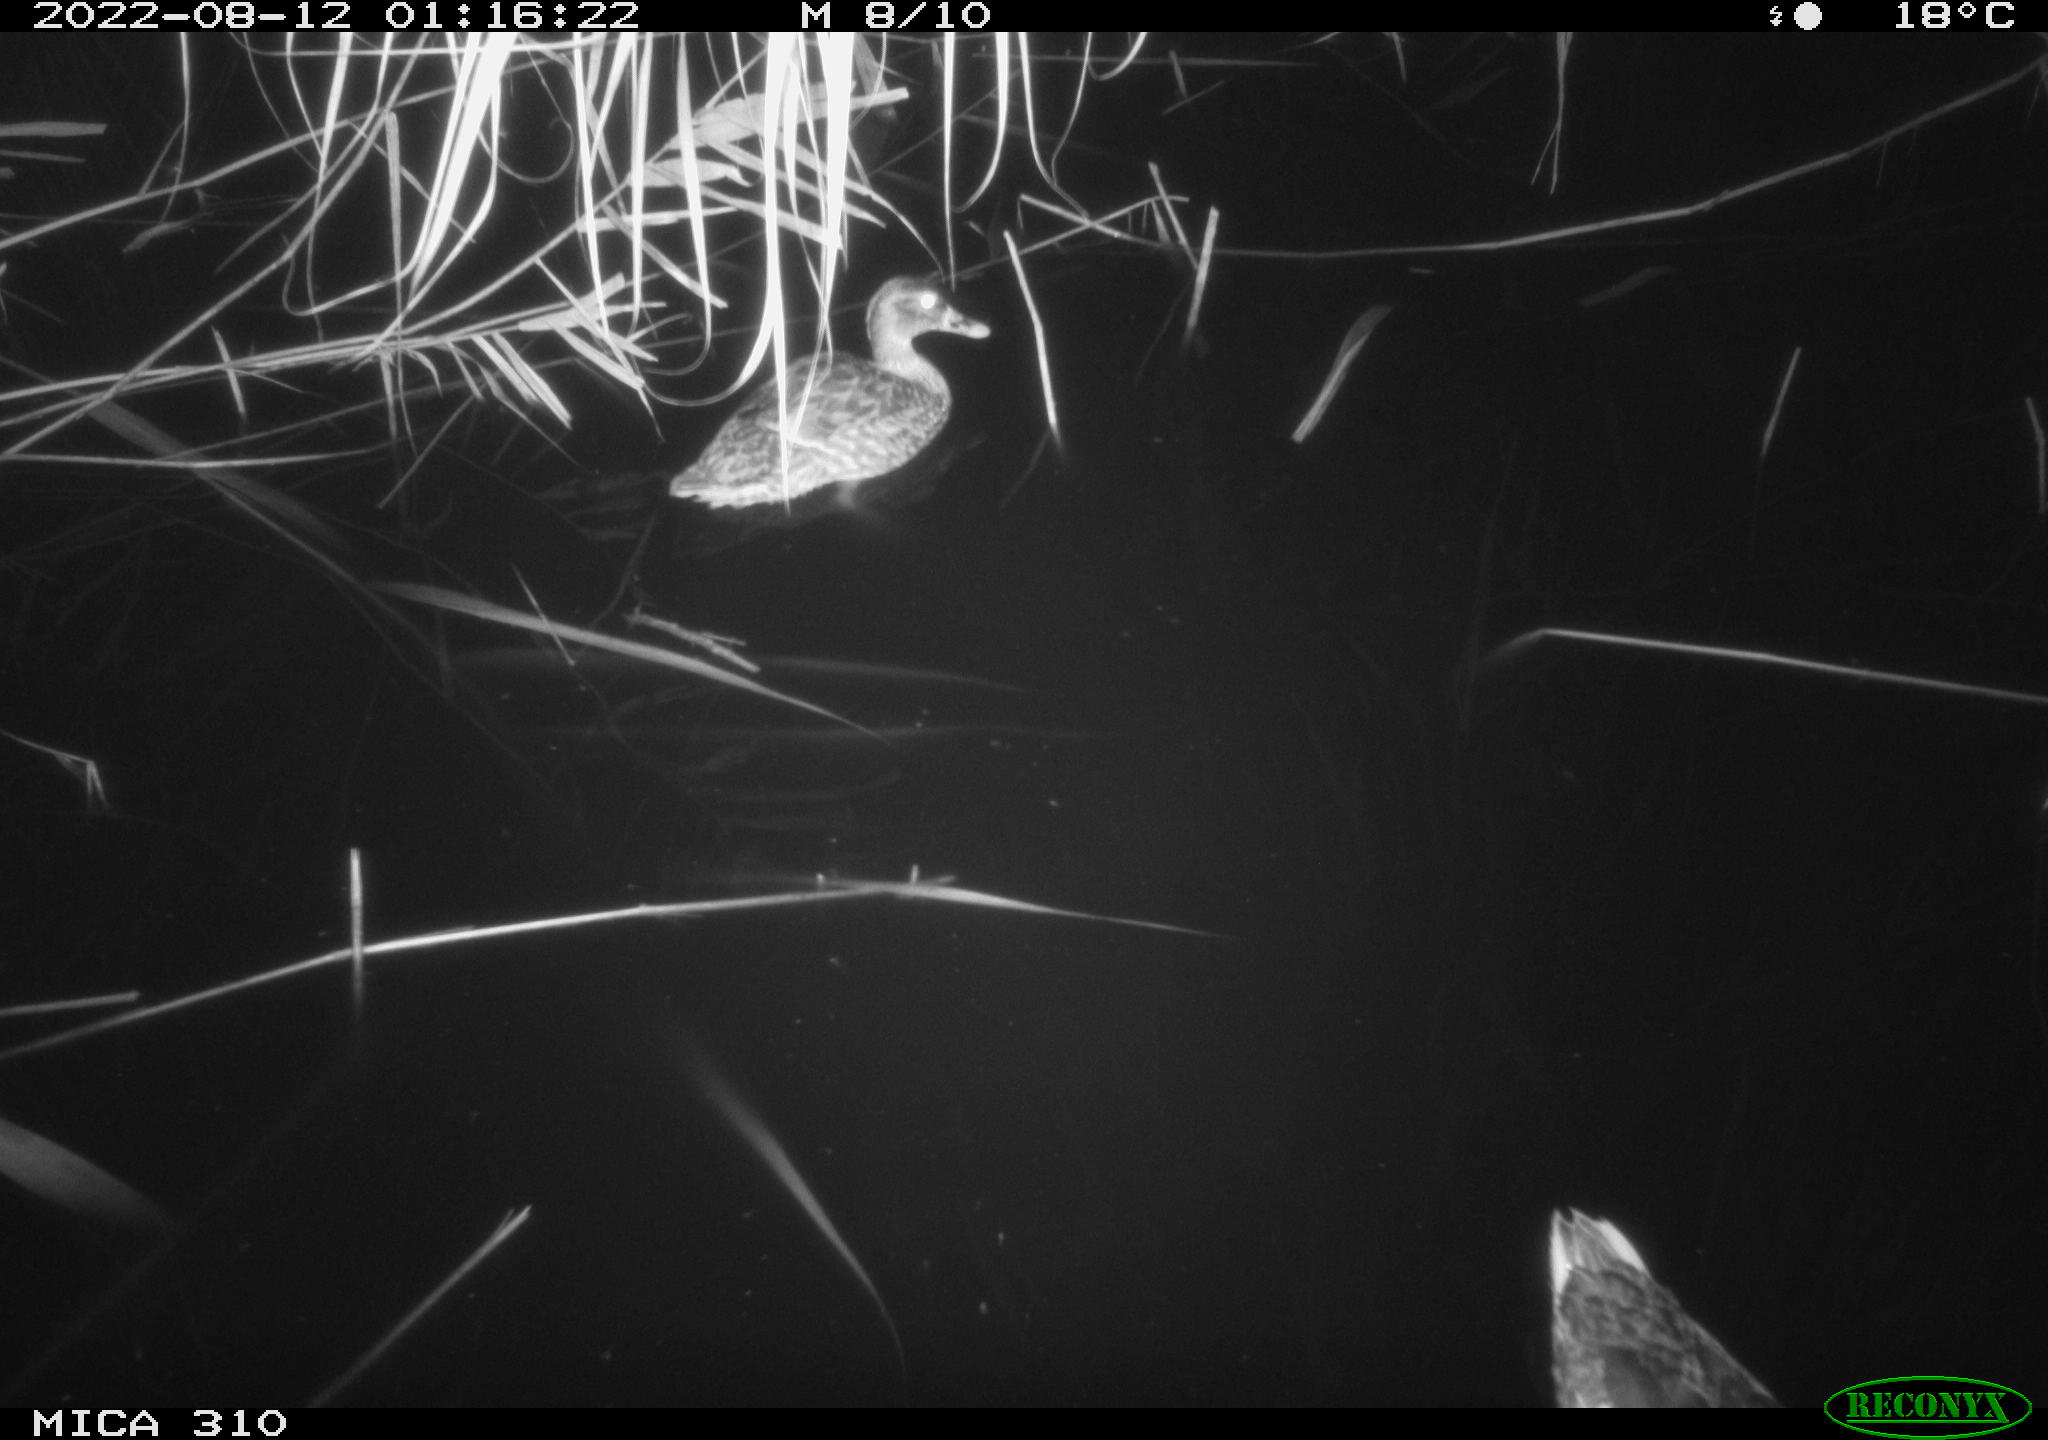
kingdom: Animalia
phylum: Chordata
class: Aves
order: Anseriformes
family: Anatidae
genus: Anas
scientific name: Anas platyrhynchos
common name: Mallard
